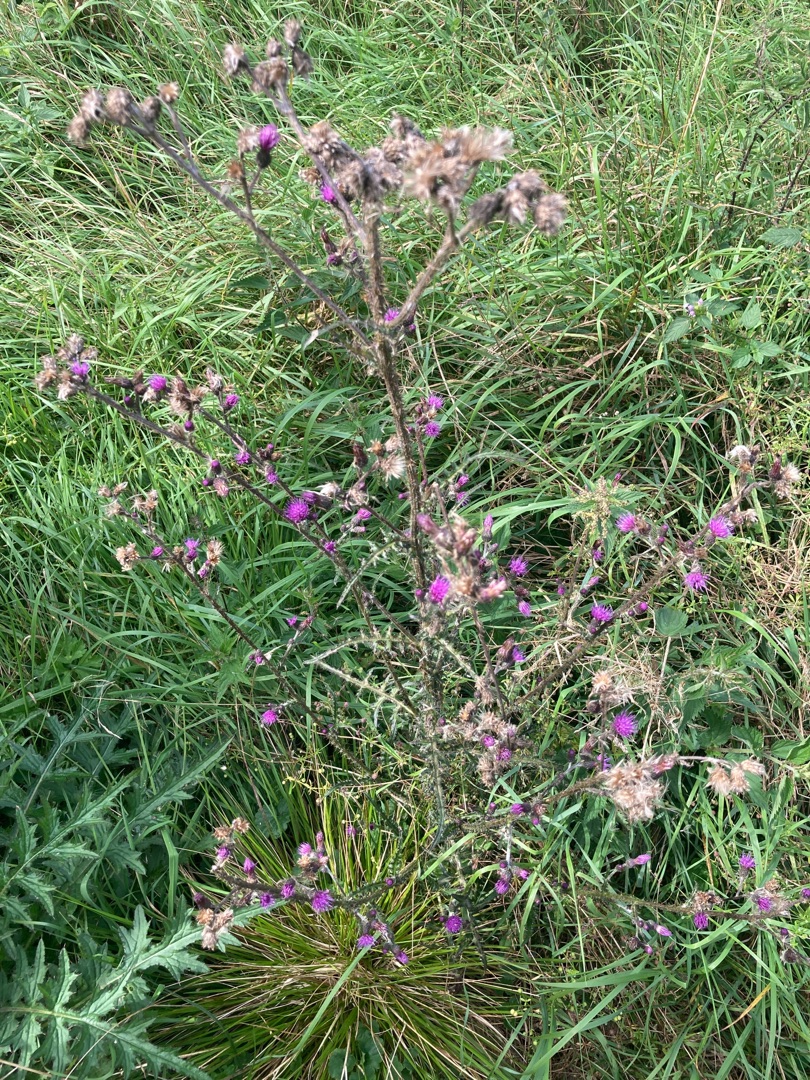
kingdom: Plantae
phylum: Tracheophyta
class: Magnoliopsida
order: Asterales
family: Asteraceae
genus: Cirsium
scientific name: Cirsium palustre
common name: Kær-tidsel
